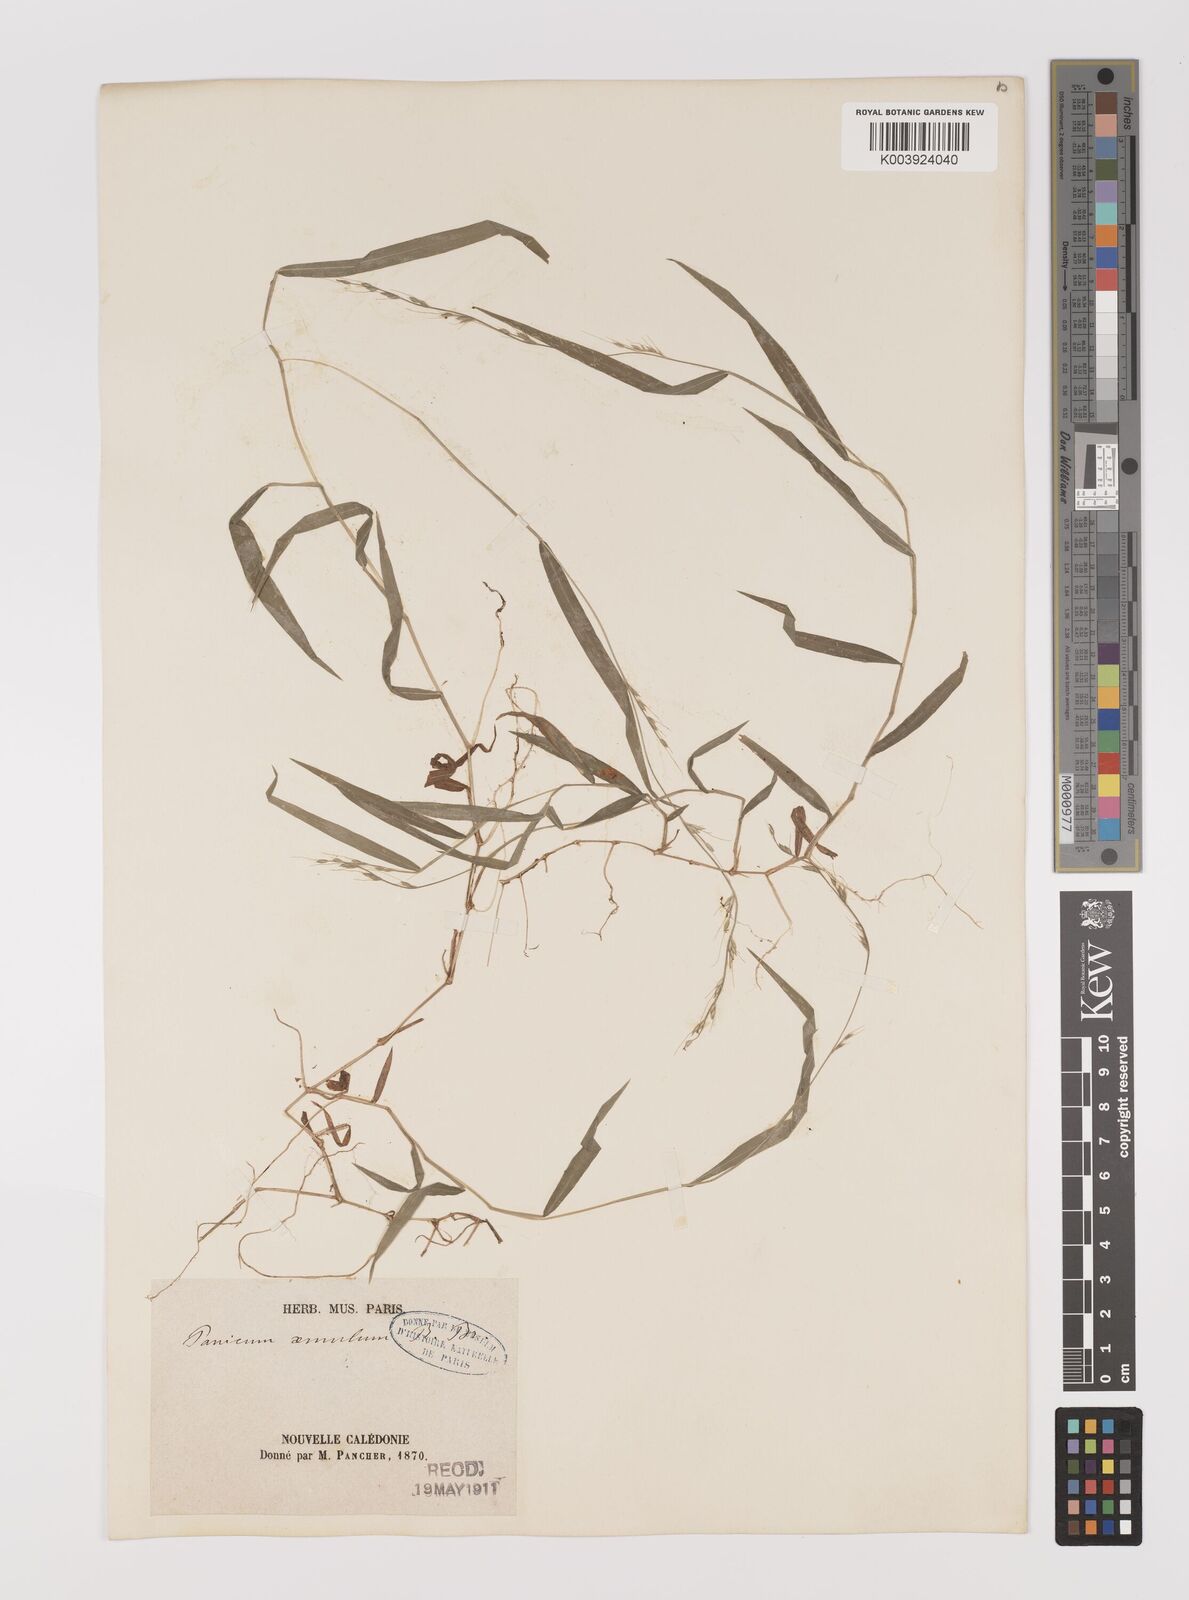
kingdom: Plantae
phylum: Tracheophyta
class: Liliopsida
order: Poales
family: Poaceae
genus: Oplismenus
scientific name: Oplismenus hirtellus
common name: Basketgrass
